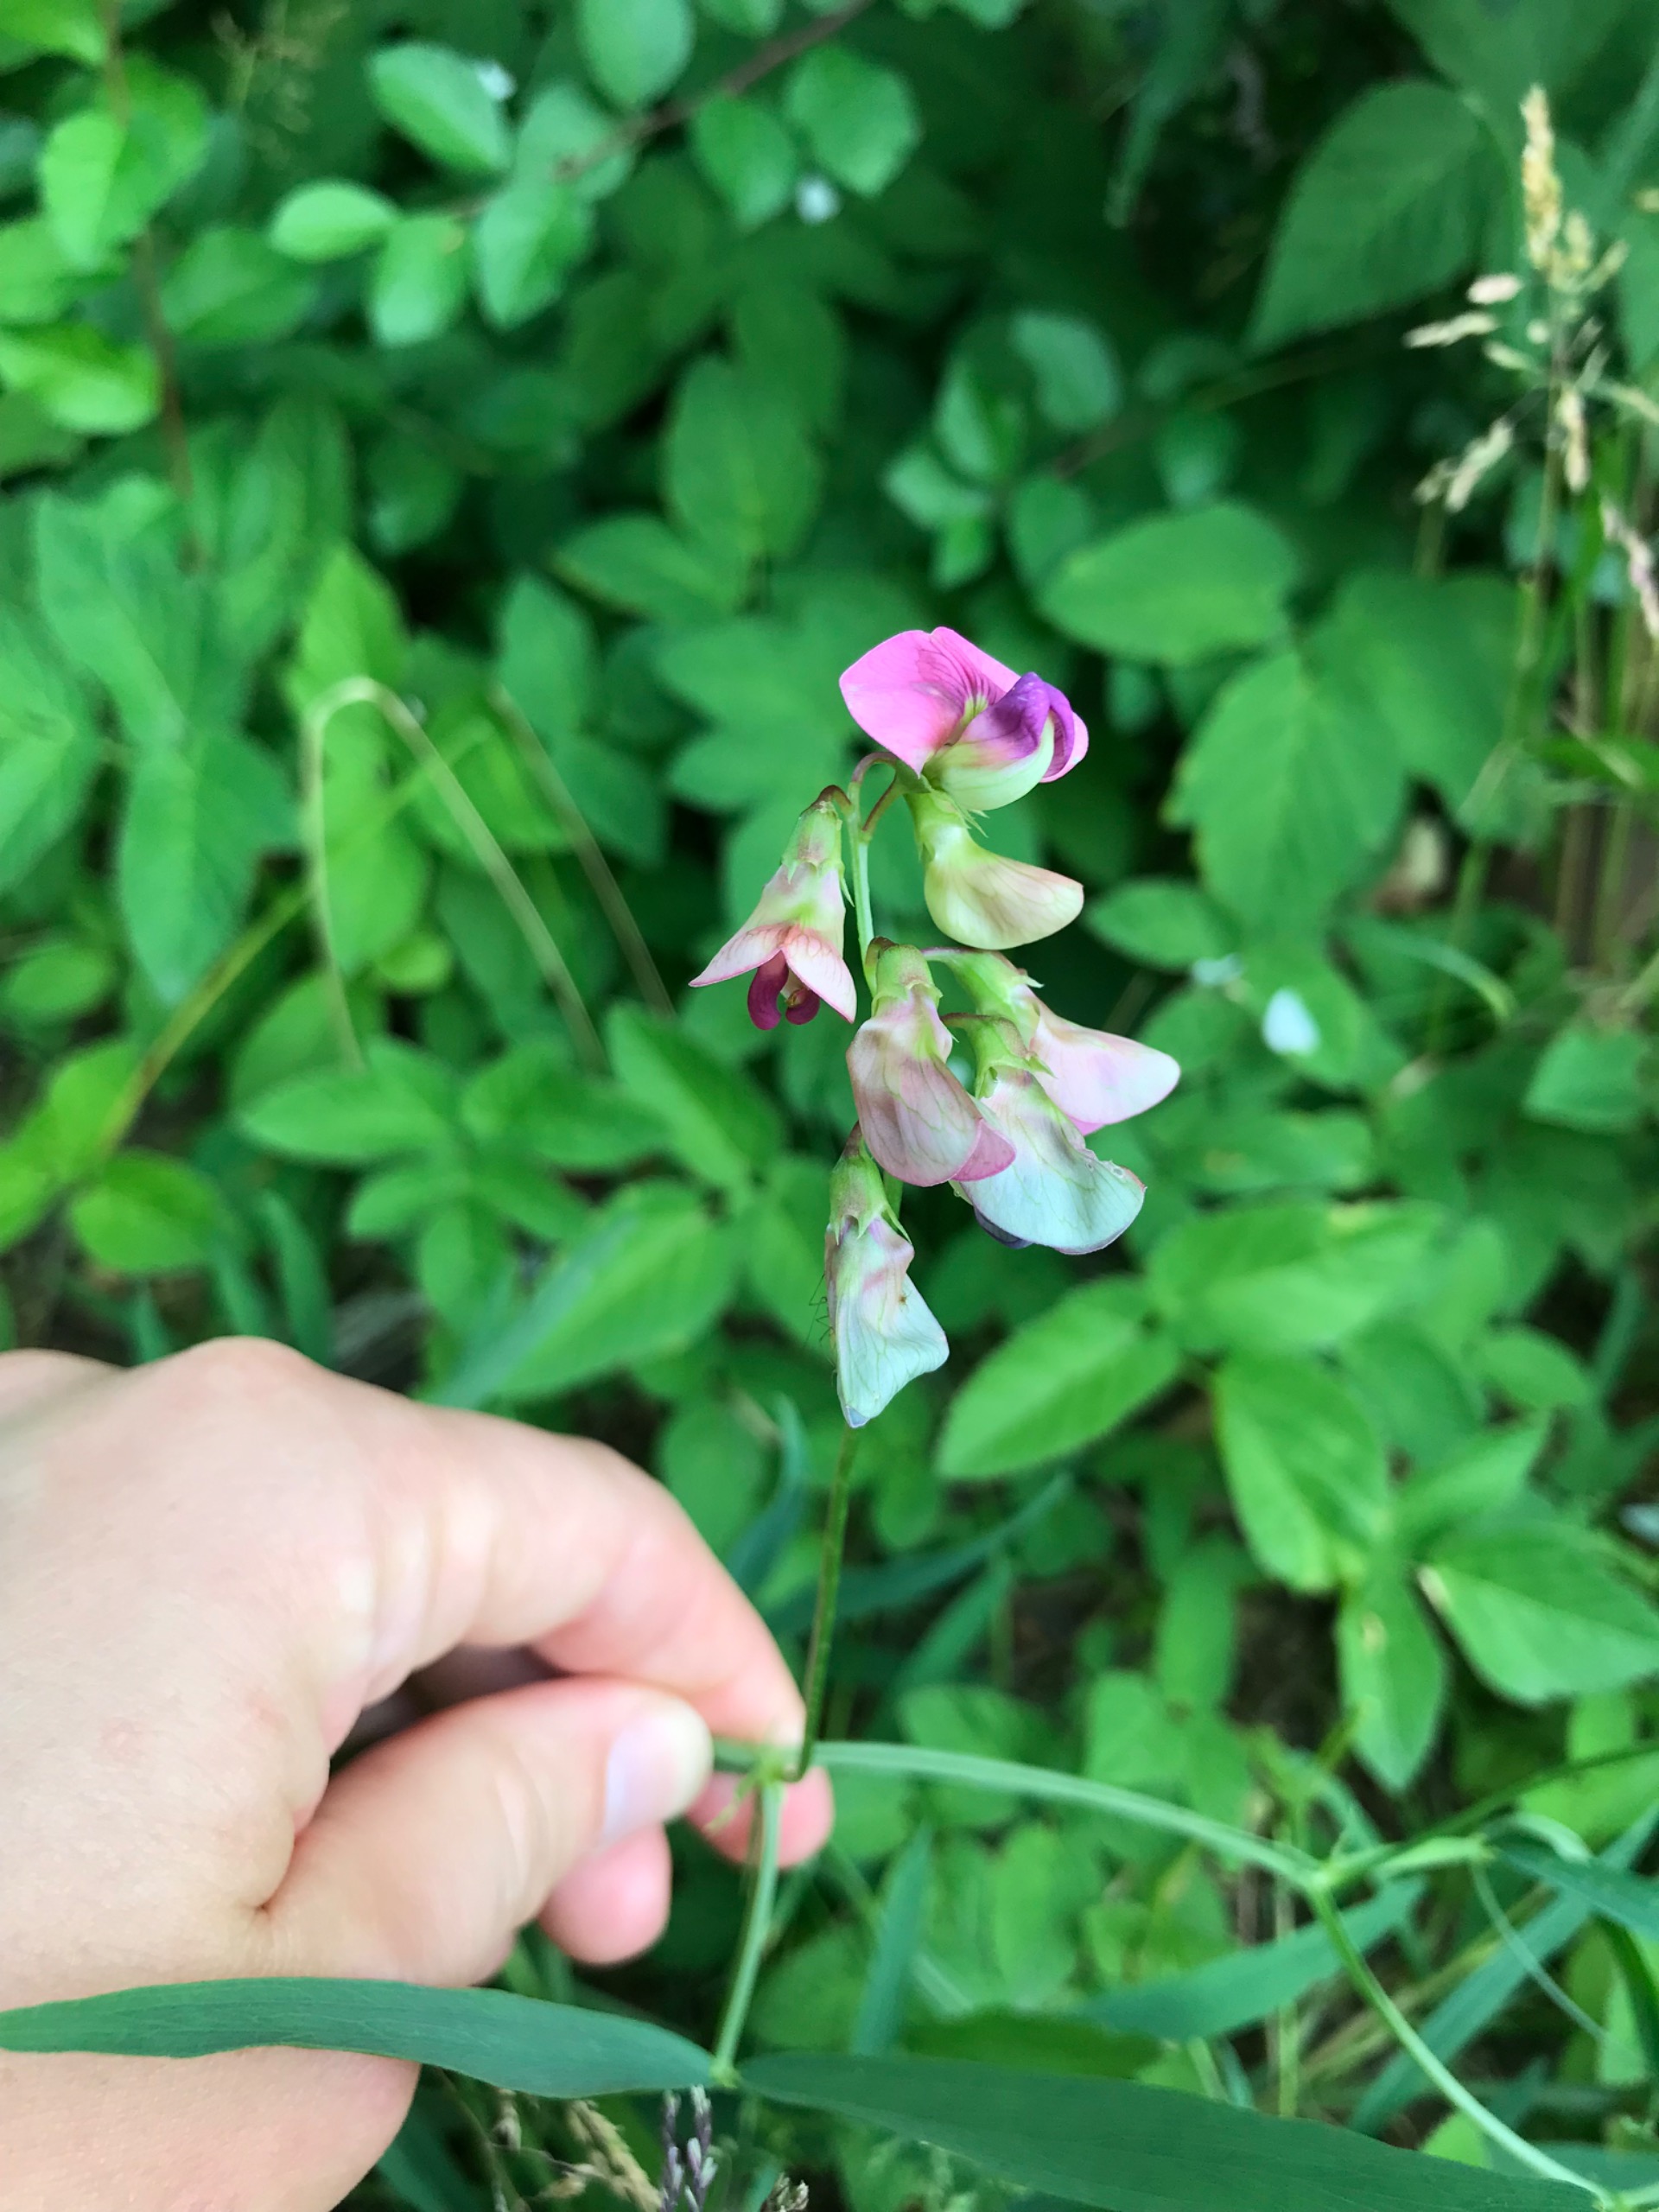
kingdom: Plantae
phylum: Tracheophyta
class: Magnoliopsida
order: Fabales
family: Fabaceae
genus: Lathyrus
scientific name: Lathyrus sylvestris
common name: Skov-fladbælg
